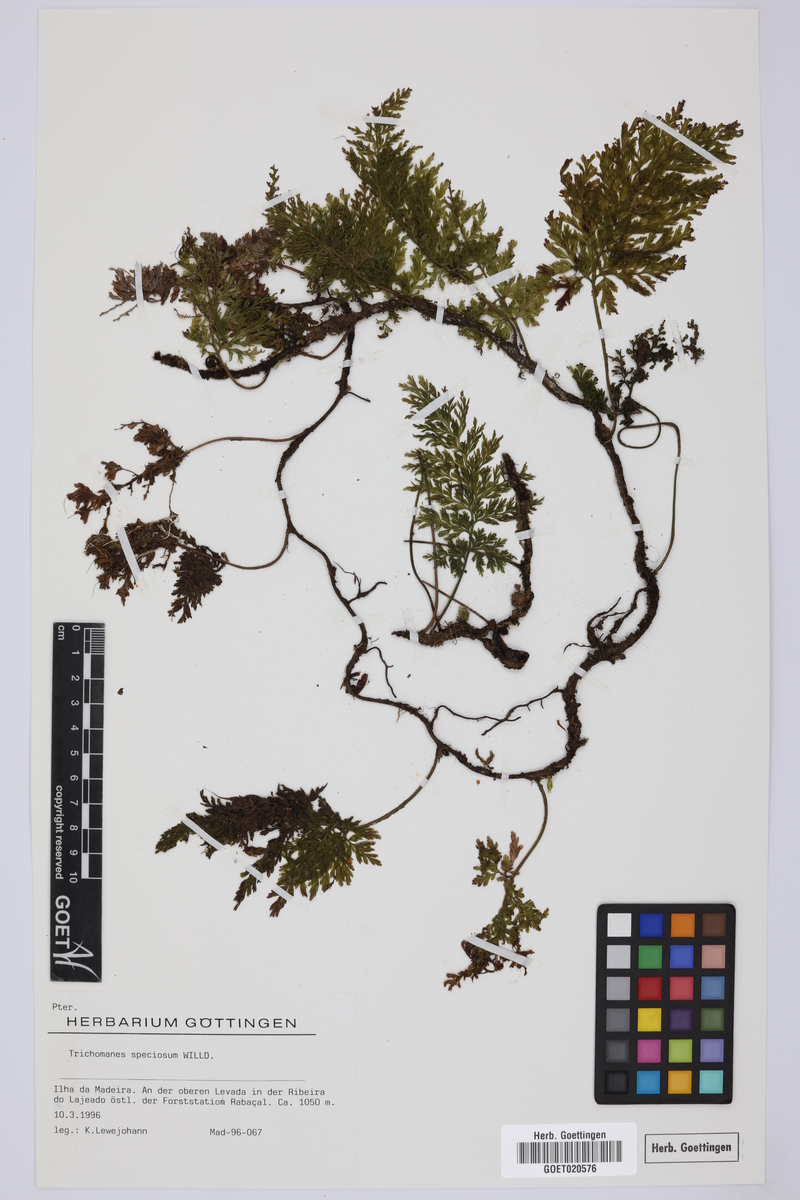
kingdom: Plantae
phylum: Tracheophyta
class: Polypodiopsida
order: Hymenophyllales
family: Hymenophyllaceae
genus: Vandenboschia
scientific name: Vandenboschia speciosa
